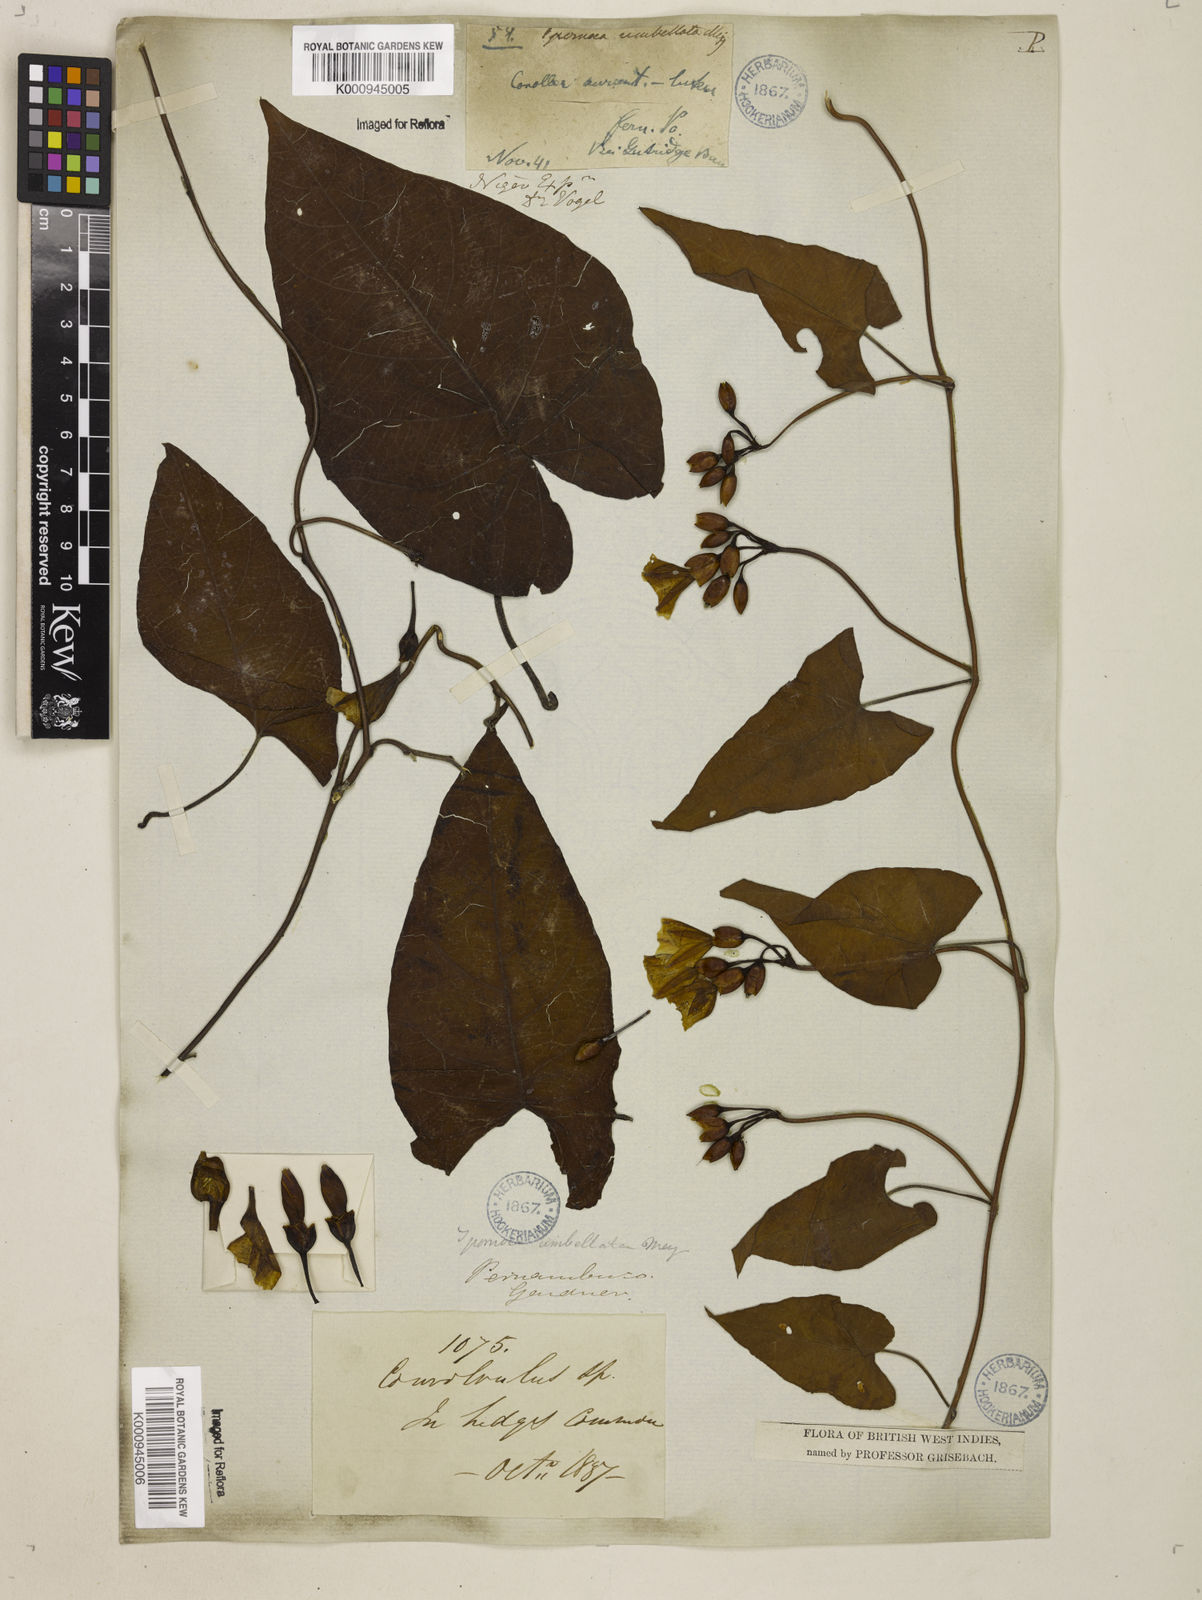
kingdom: Plantae
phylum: Tracheophyta
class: Magnoliopsida
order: Solanales
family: Convolvulaceae
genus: Camonea
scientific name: Camonea umbellata
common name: Hogvine
